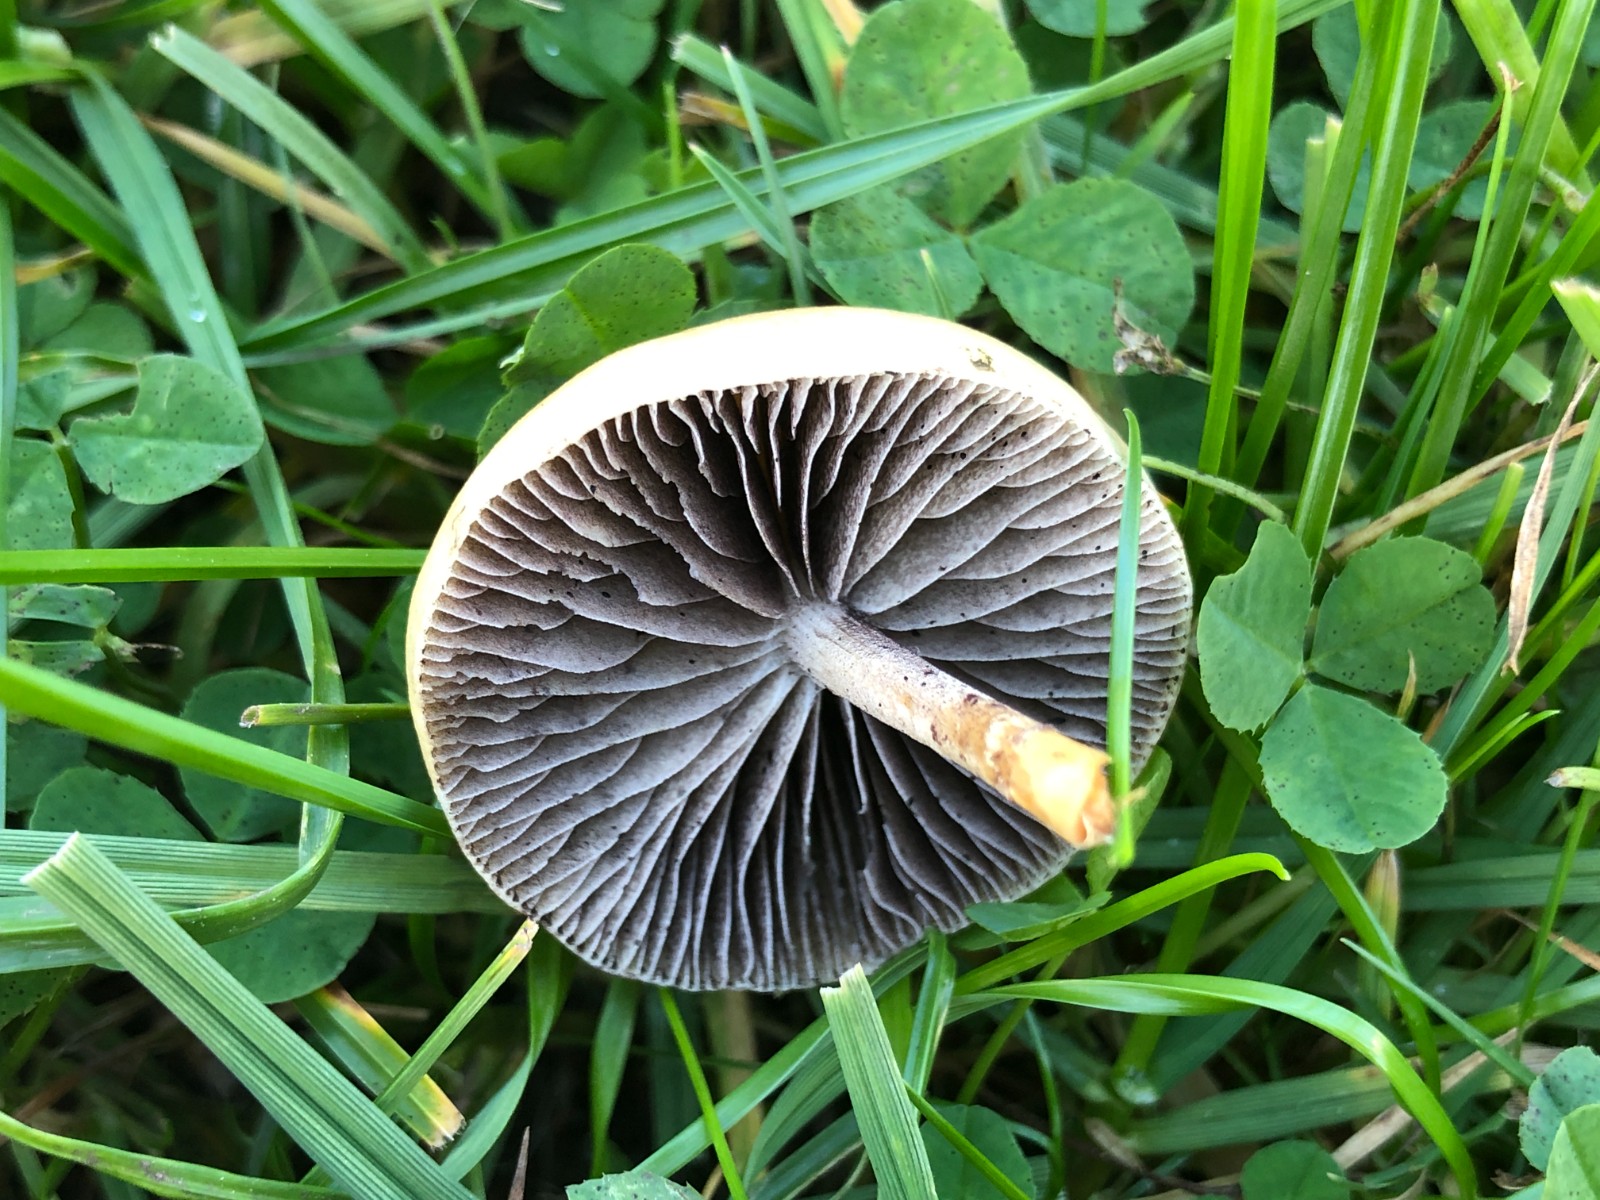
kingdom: Fungi
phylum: Basidiomycota
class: Agaricomycetes
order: Agaricales
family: Strophariaceae
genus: Protostropharia
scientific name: Protostropharia semiglobata
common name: halvkugleformet bredblad
